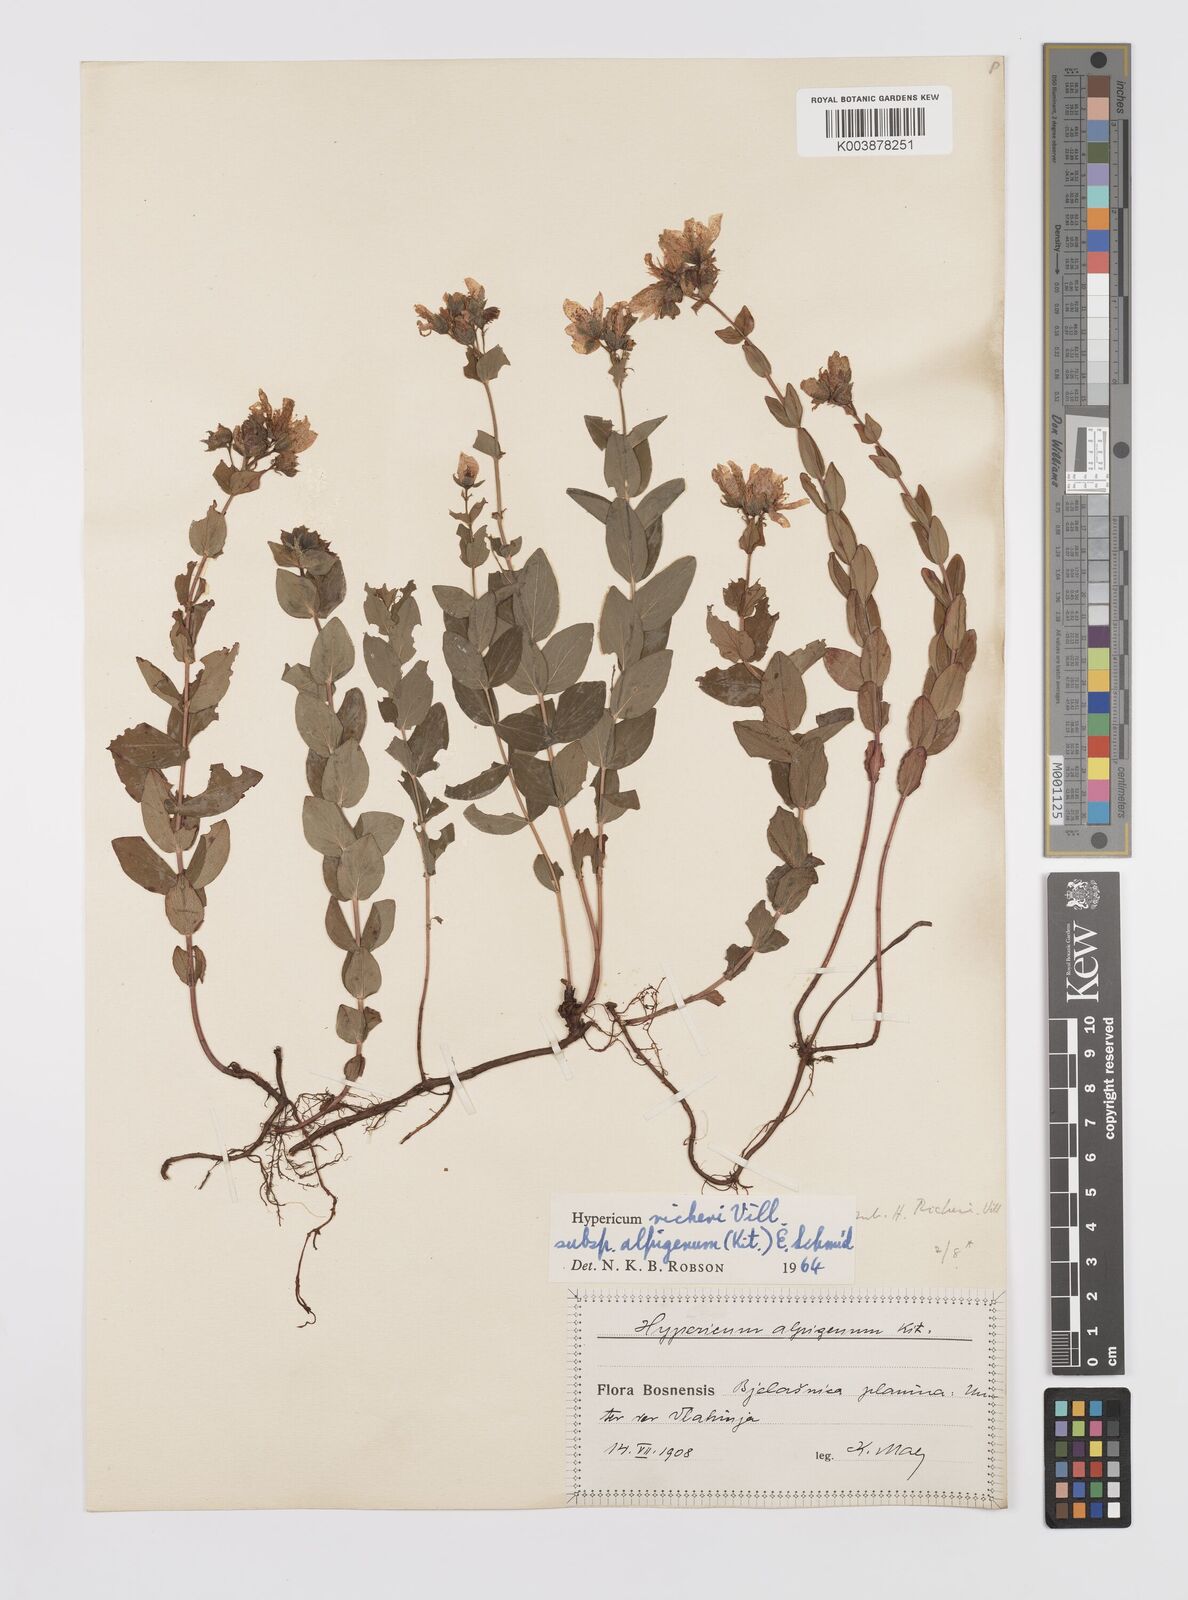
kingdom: Plantae
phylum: Tracheophyta
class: Magnoliopsida
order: Malpighiales
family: Hypericaceae
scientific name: Hypericaceae
